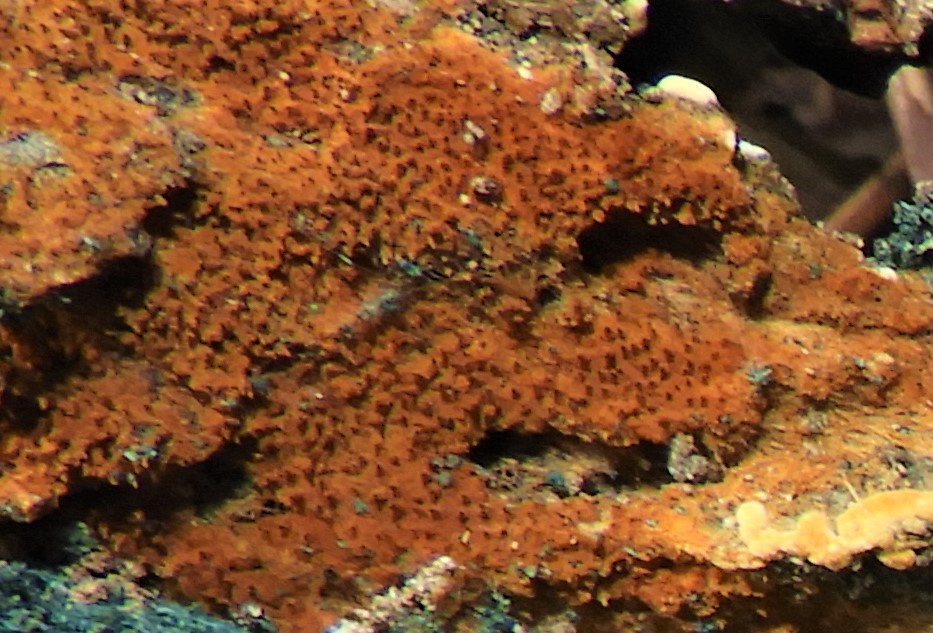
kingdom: Fungi
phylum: Basidiomycota
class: Agaricomycetes
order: Thelephorales
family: Thelephoraceae
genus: Odontia
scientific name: Odontia ferruginea
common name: pigget frynsehinde
